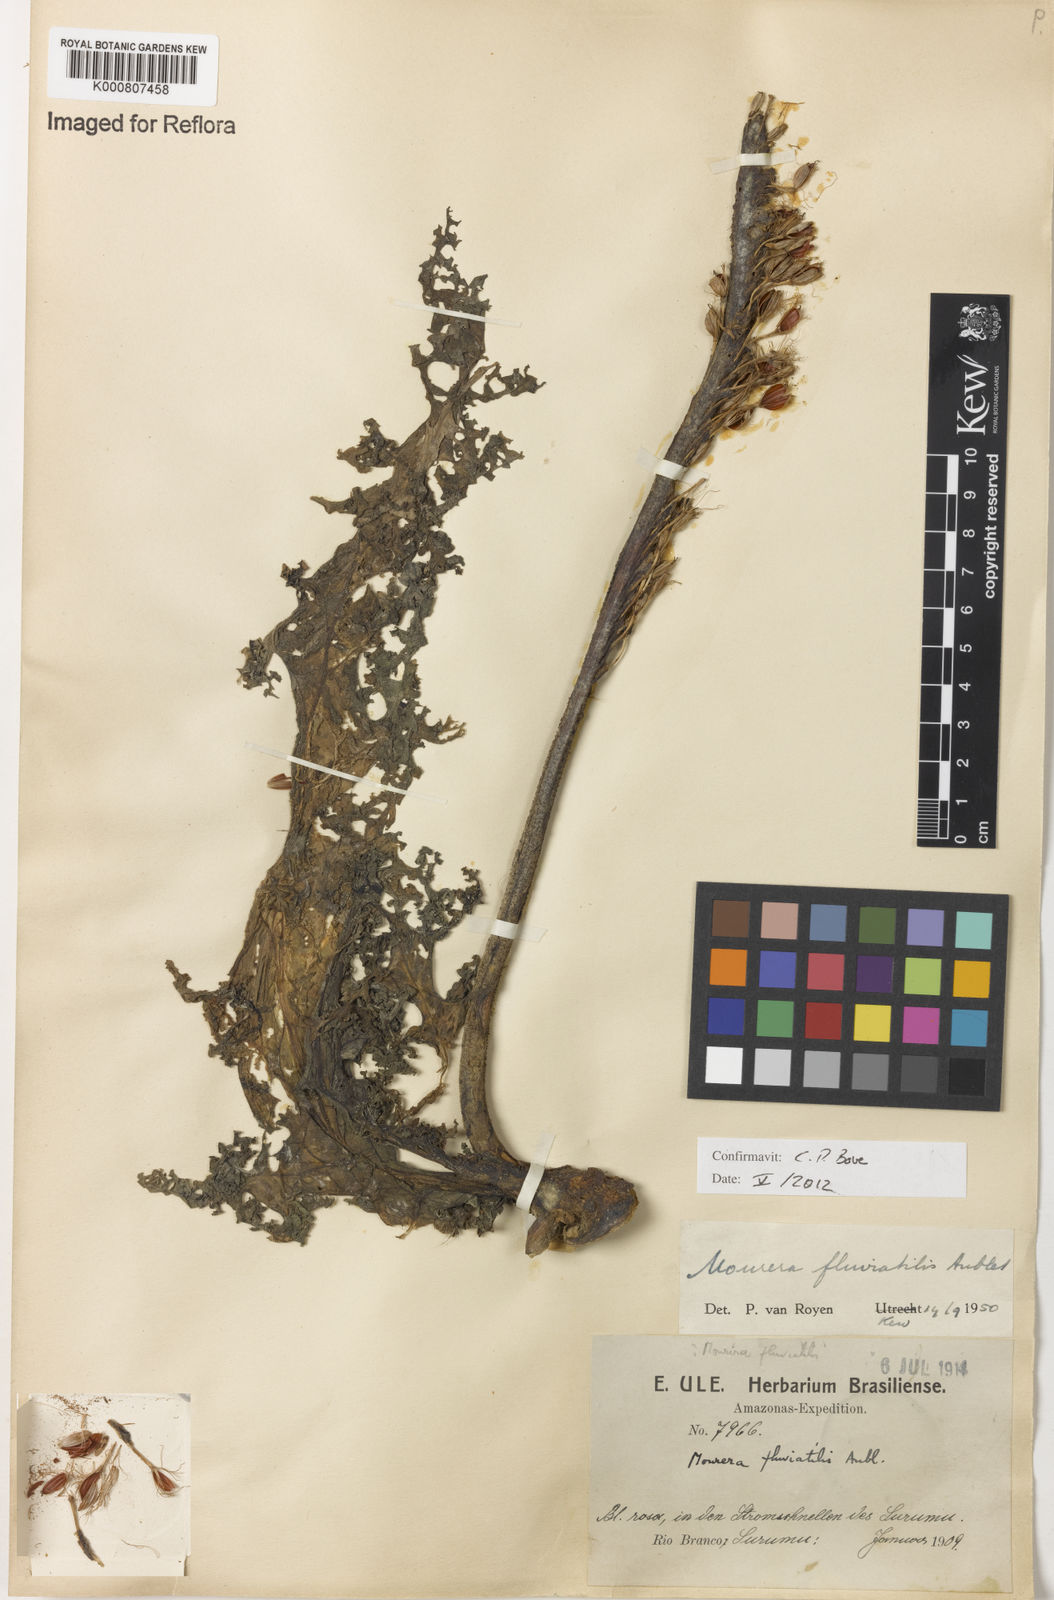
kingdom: Plantae
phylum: Tracheophyta
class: Magnoliopsida
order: Malpighiales
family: Podostemaceae
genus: Mourera
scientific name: Mourera fluviatilis
